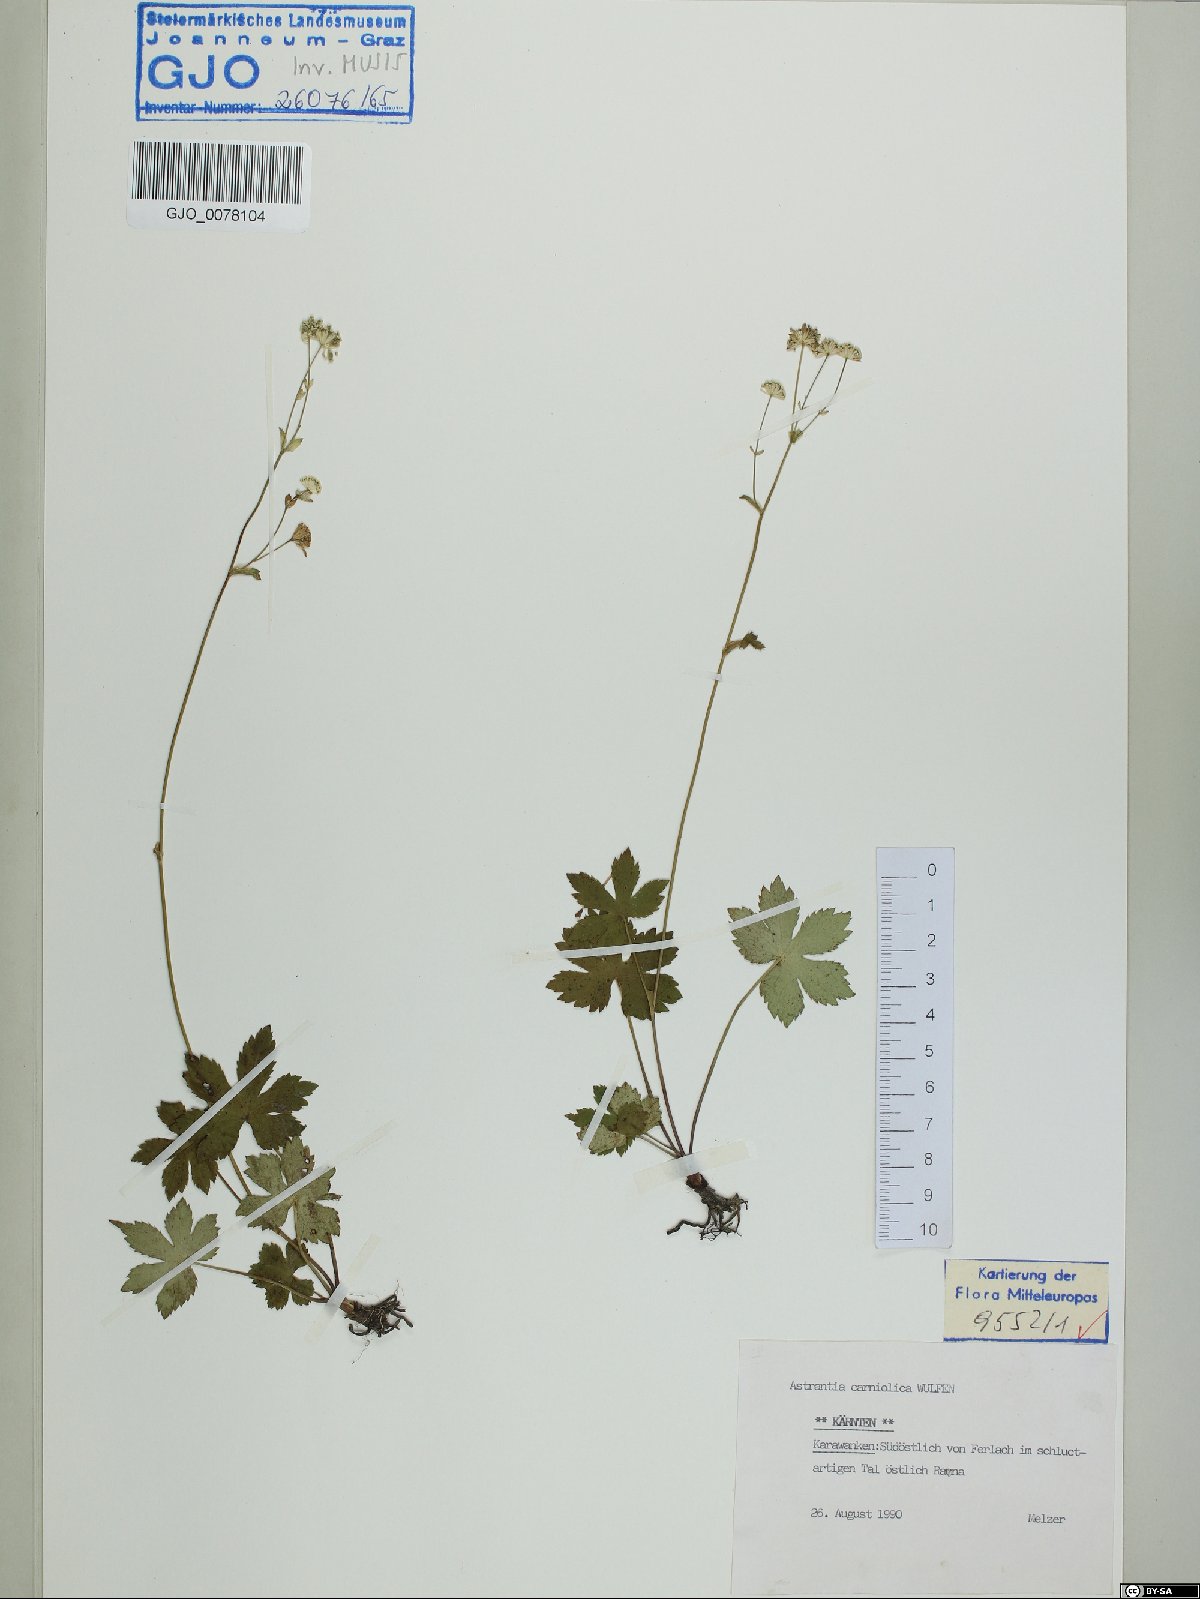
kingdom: Plantae
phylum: Tracheophyta
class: Magnoliopsida
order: Apiales
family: Apiaceae
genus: Astrantia
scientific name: Astrantia carniolica
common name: Carnic masterwort
